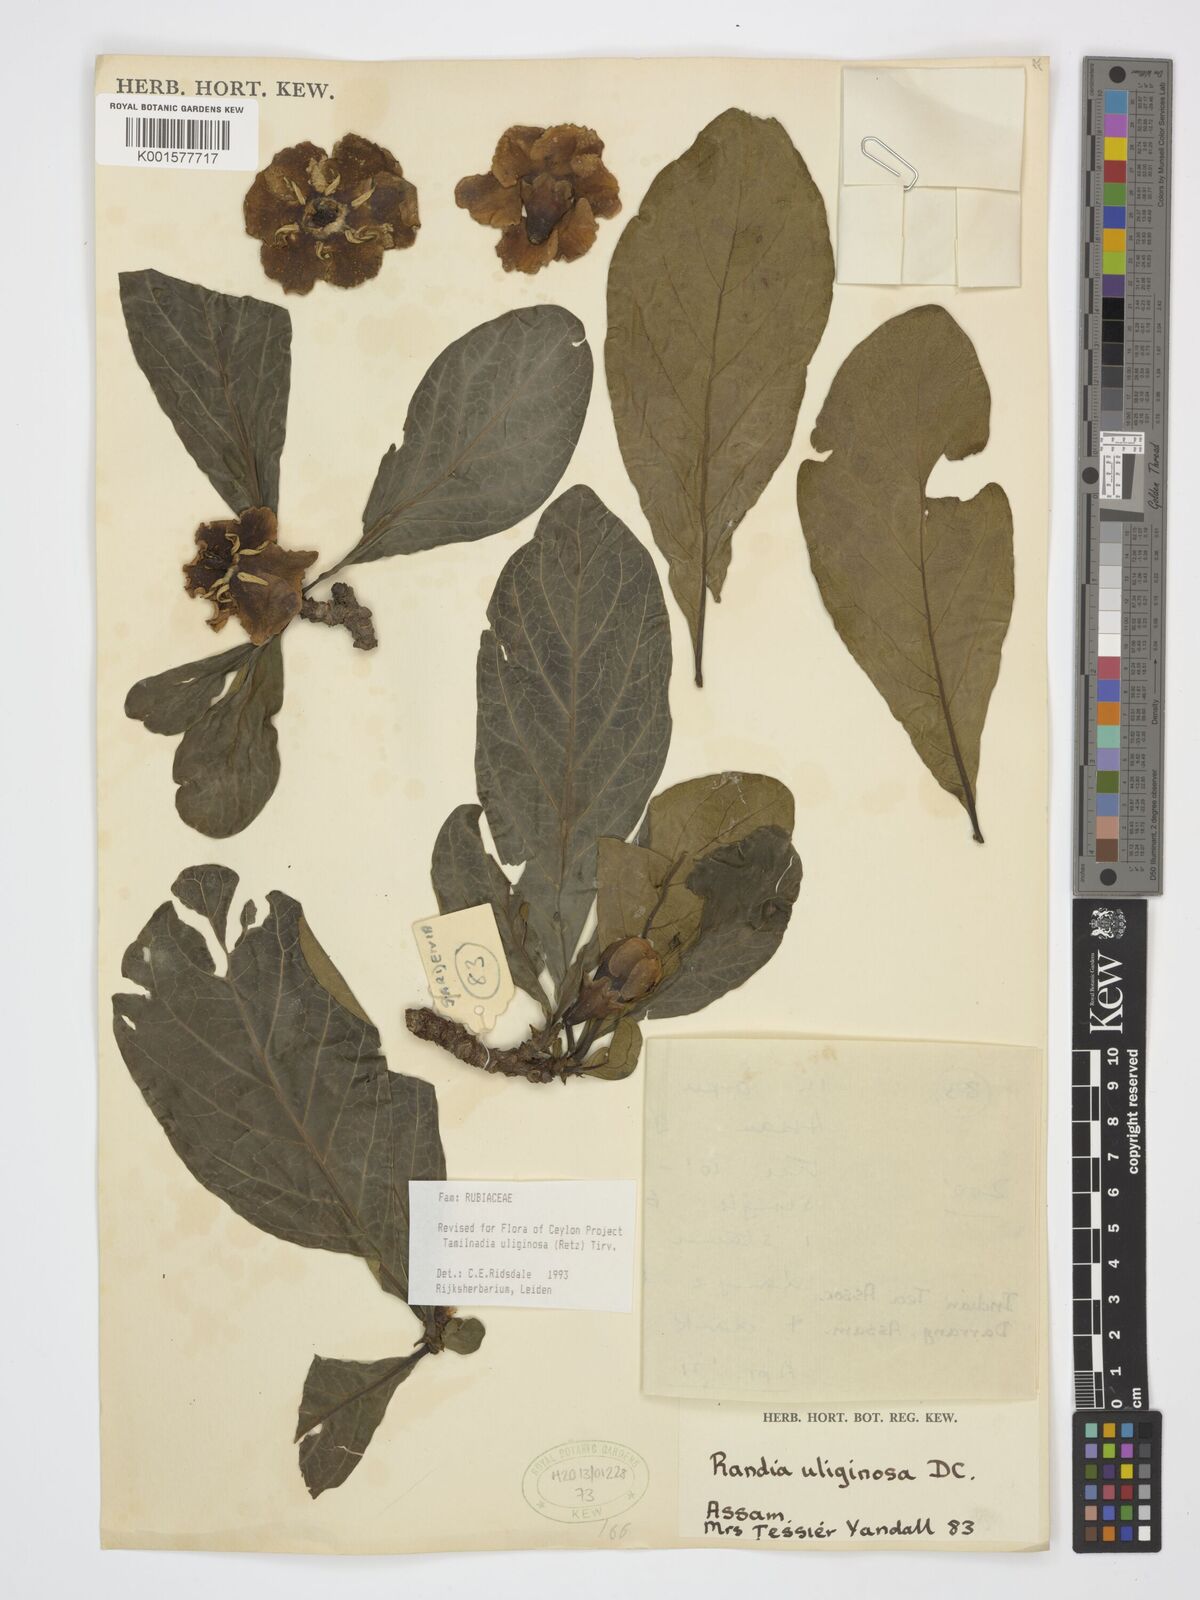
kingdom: Plantae
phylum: Tracheophyta
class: Magnoliopsida
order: Gentianales
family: Rubiaceae
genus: Tamilnadia
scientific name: Tamilnadia uliginosa
